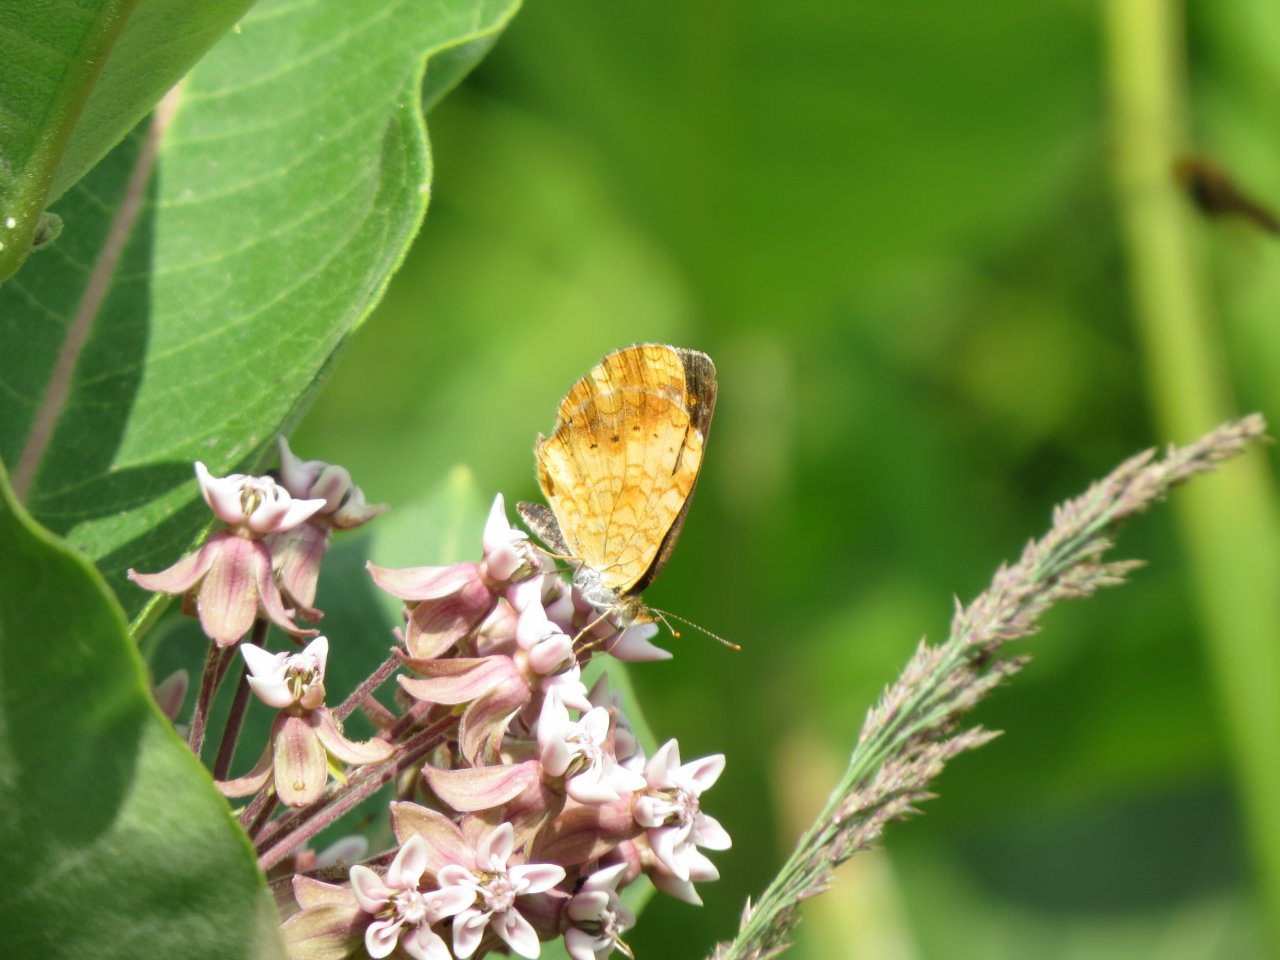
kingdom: Animalia
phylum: Arthropoda
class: Insecta
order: Lepidoptera
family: Nymphalidae
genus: Phyciodes
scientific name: Phyciodes tharos
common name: Northern Crescent
